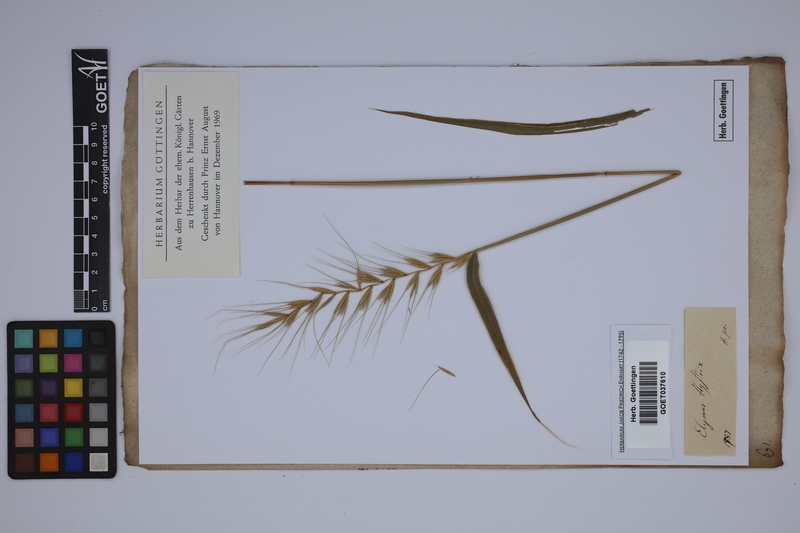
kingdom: Plantae
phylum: Tracheophyta
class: Liliopsida
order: Poales
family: Poaceae
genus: Elymus
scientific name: Elymus elymoides
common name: Bottlebrush squirreltail
